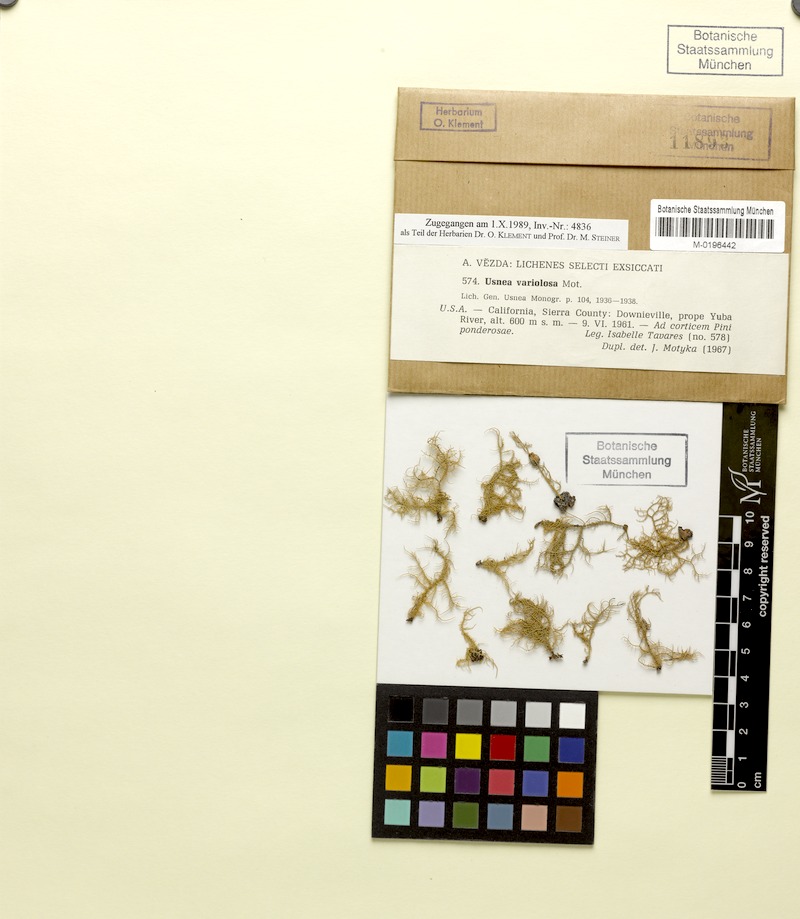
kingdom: Fungi
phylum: Ascomycota
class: Lecanoromycetes
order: Lecanorales
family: Parmeliaceae
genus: Usnea
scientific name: Usnea hirta
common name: Bristly beard lichen
